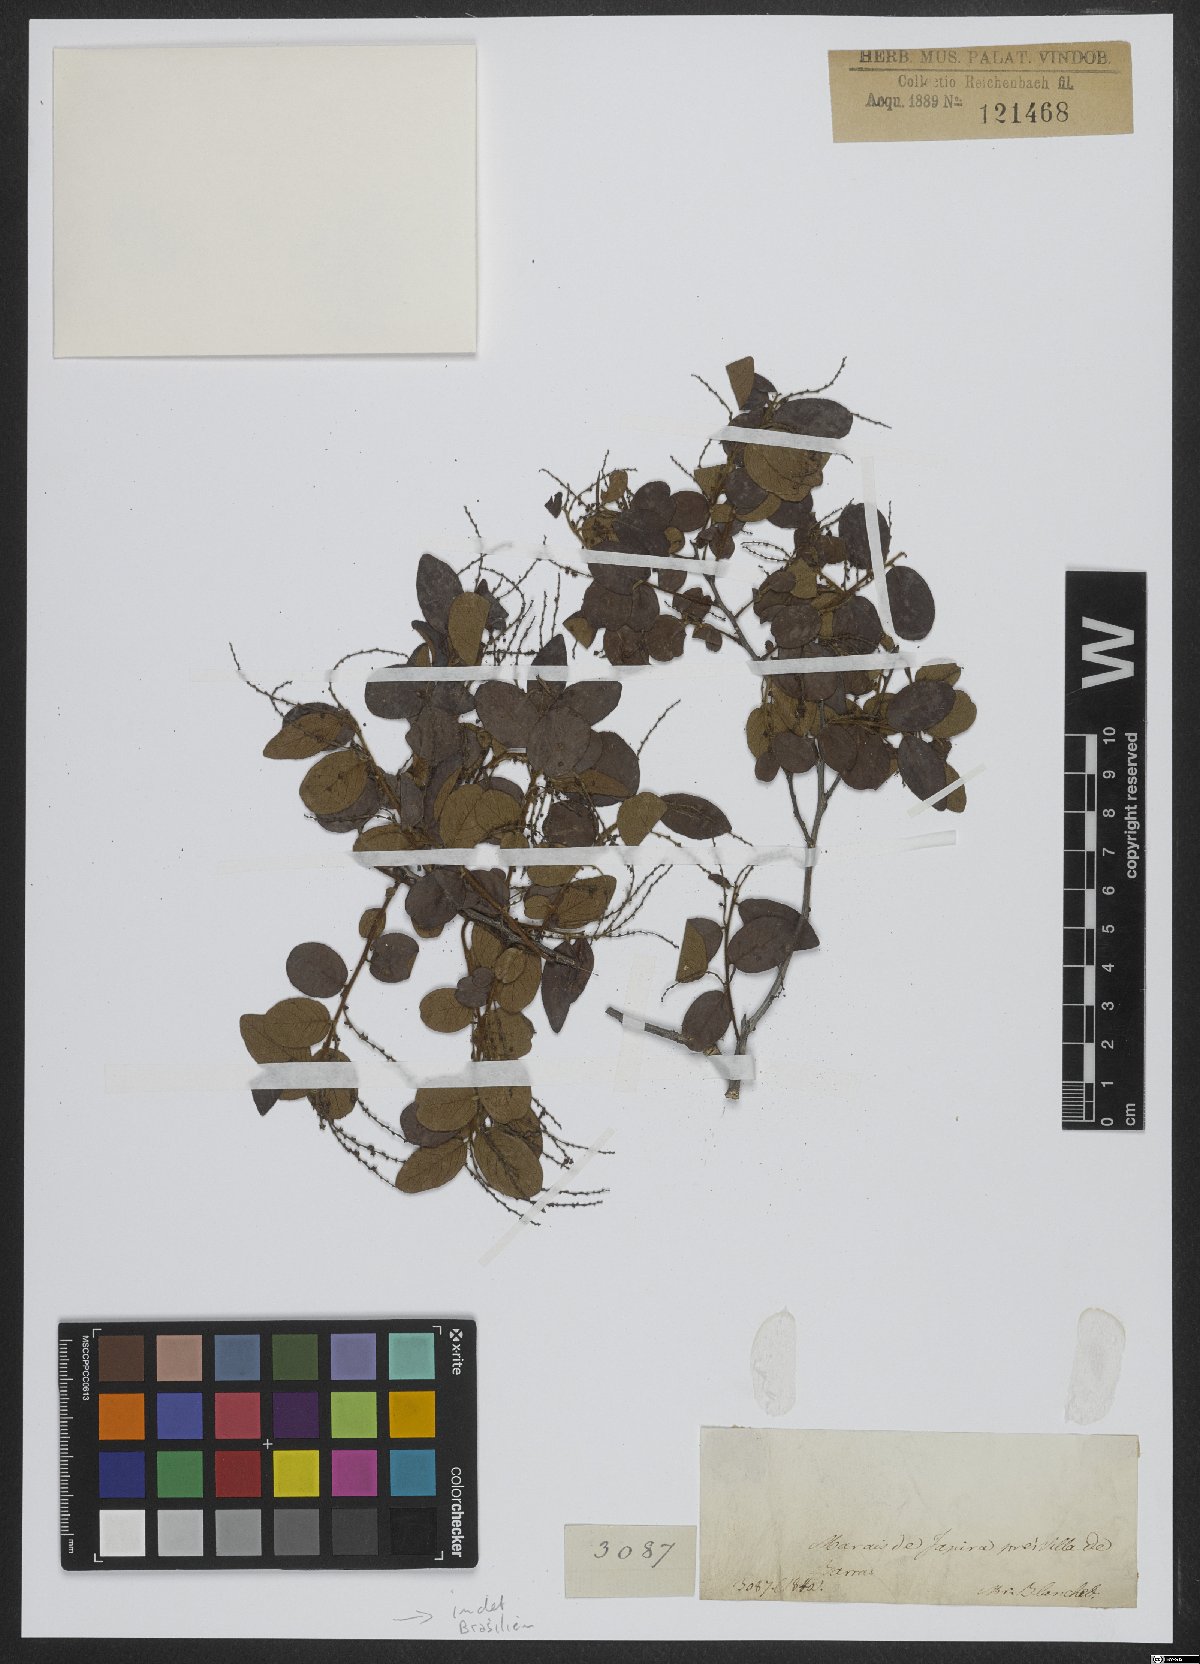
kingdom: Plantae
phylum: Tracheophyta
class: Magnoliopsida
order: Celastrales
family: Celastraceae
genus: Fraunhofera
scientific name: Fraunhofera multiflora
